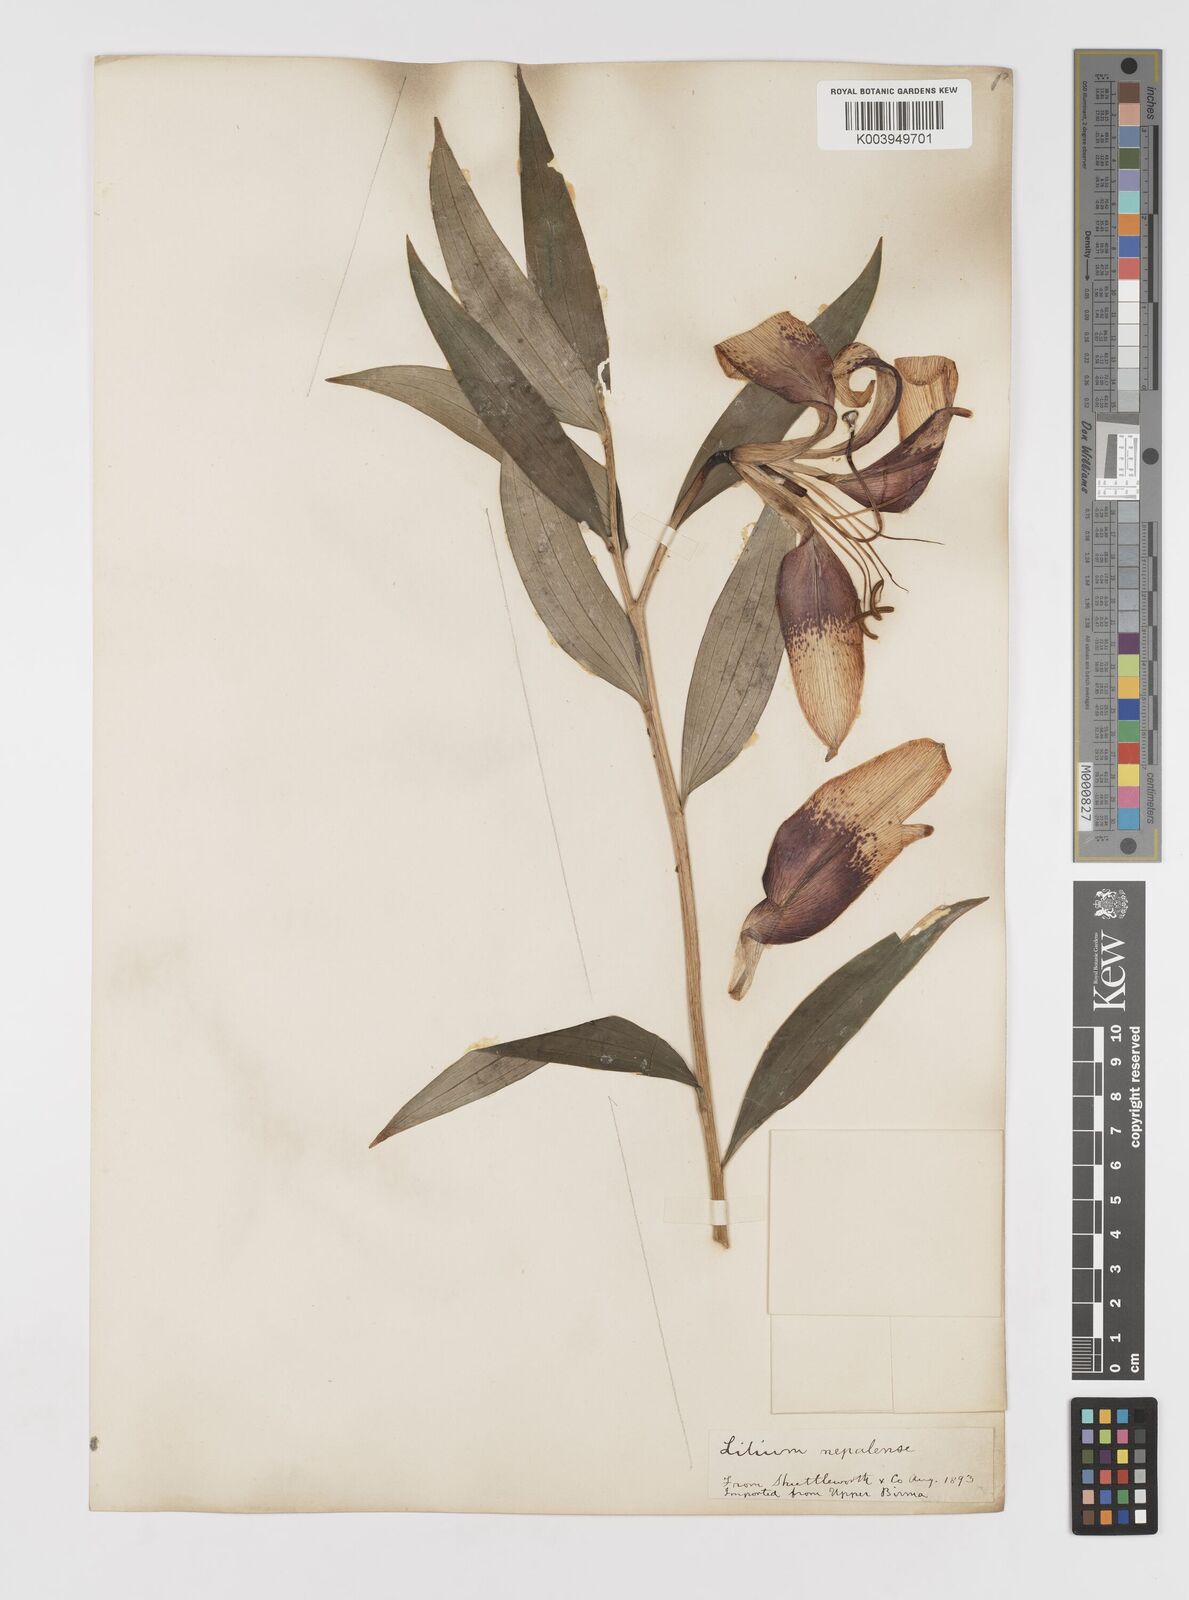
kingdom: Plantae
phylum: Tracheophyta
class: Liliopsida
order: Liliales
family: Liliaceae
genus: Lilium
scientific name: Lilium primulinum
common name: Ochre lily
